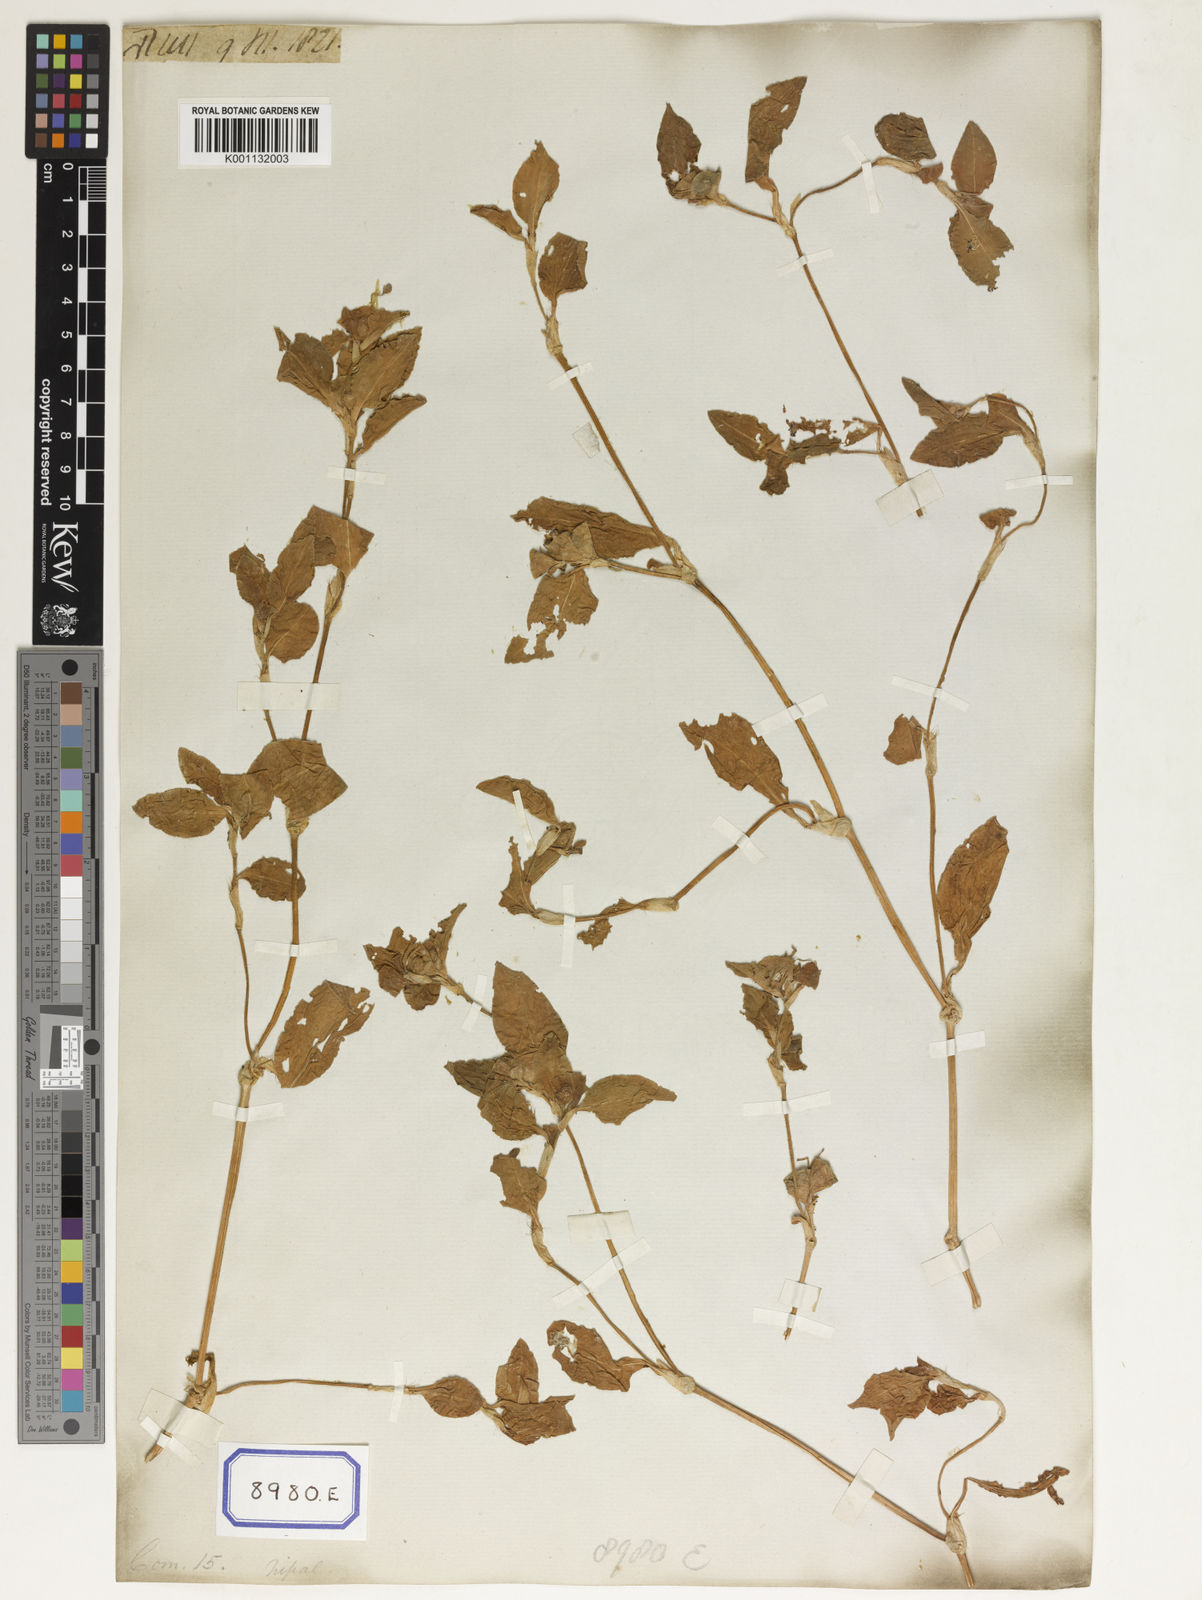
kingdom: Plantae
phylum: Tracheophyta
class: Liliopsida
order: Commelinales
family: Commelinaceae
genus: Commelina
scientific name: Commelina benghalensis
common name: Jio
